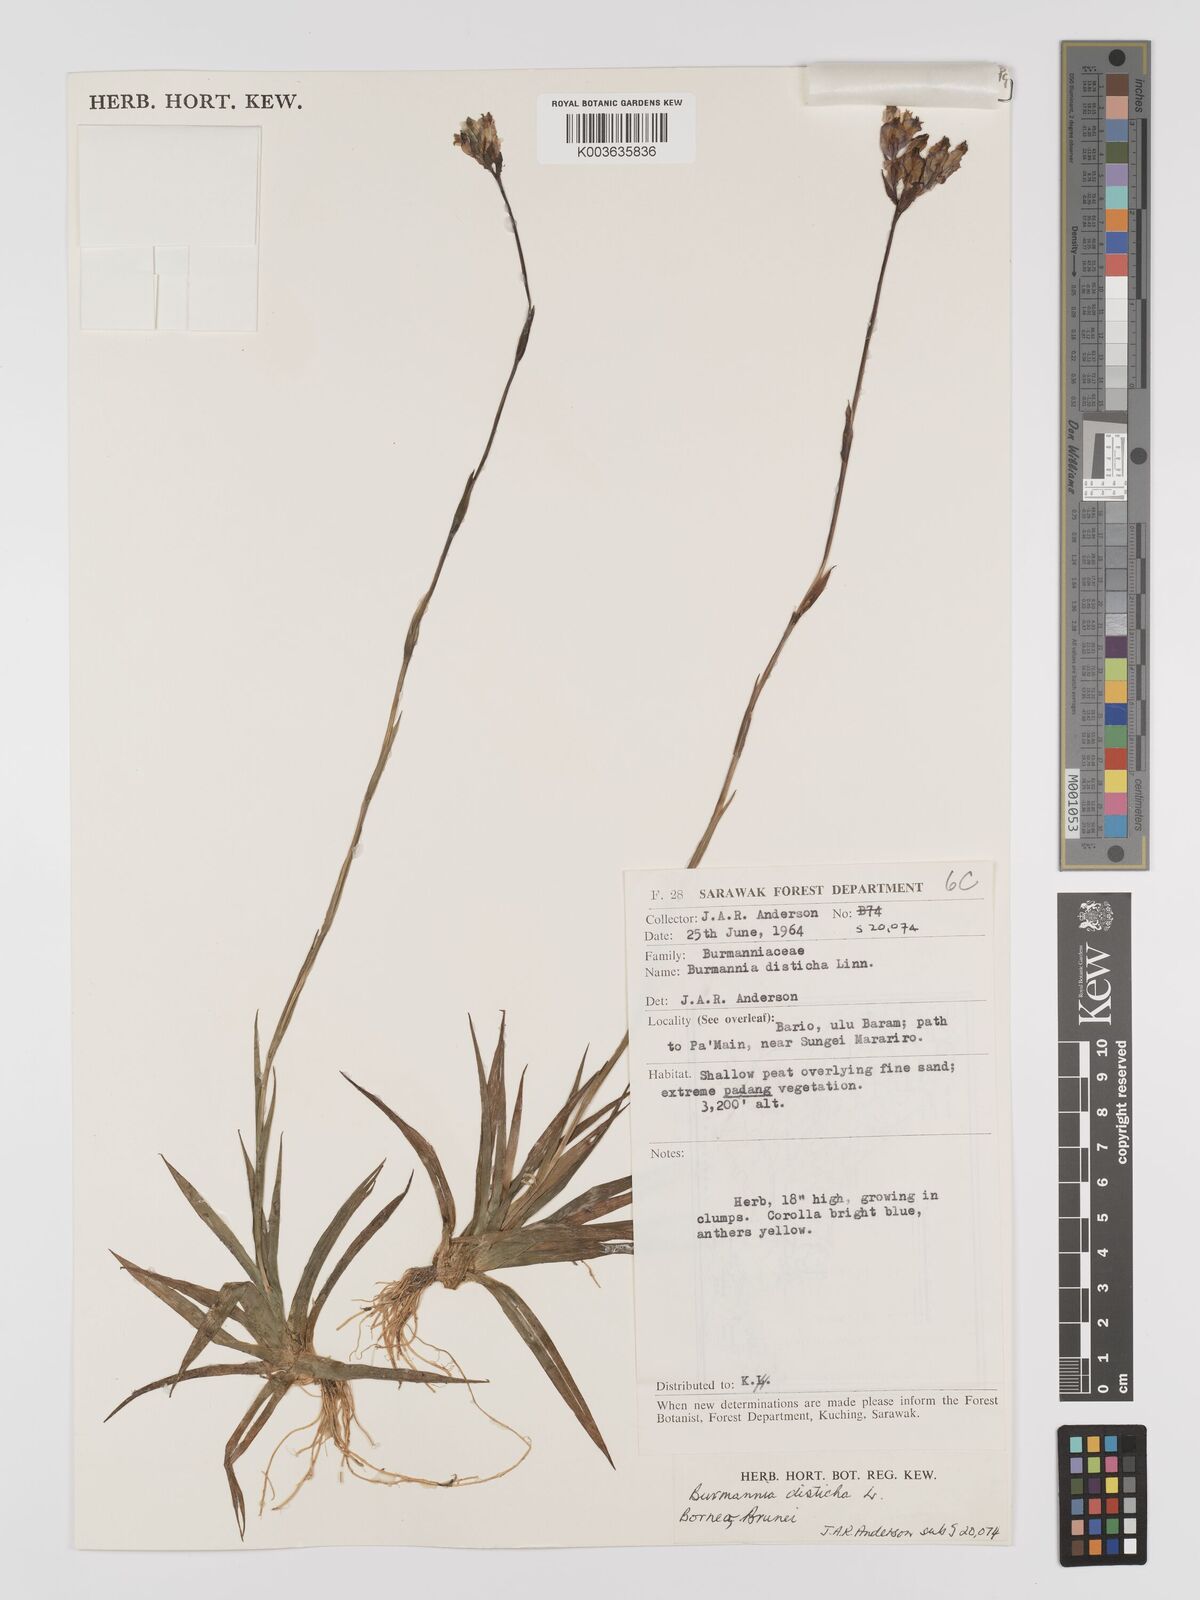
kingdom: Plantae
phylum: Tracheophyta
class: Liliopsida
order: Dioscoreales
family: Burmanniaceae
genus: Burmannia
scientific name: Burmannia disticha
